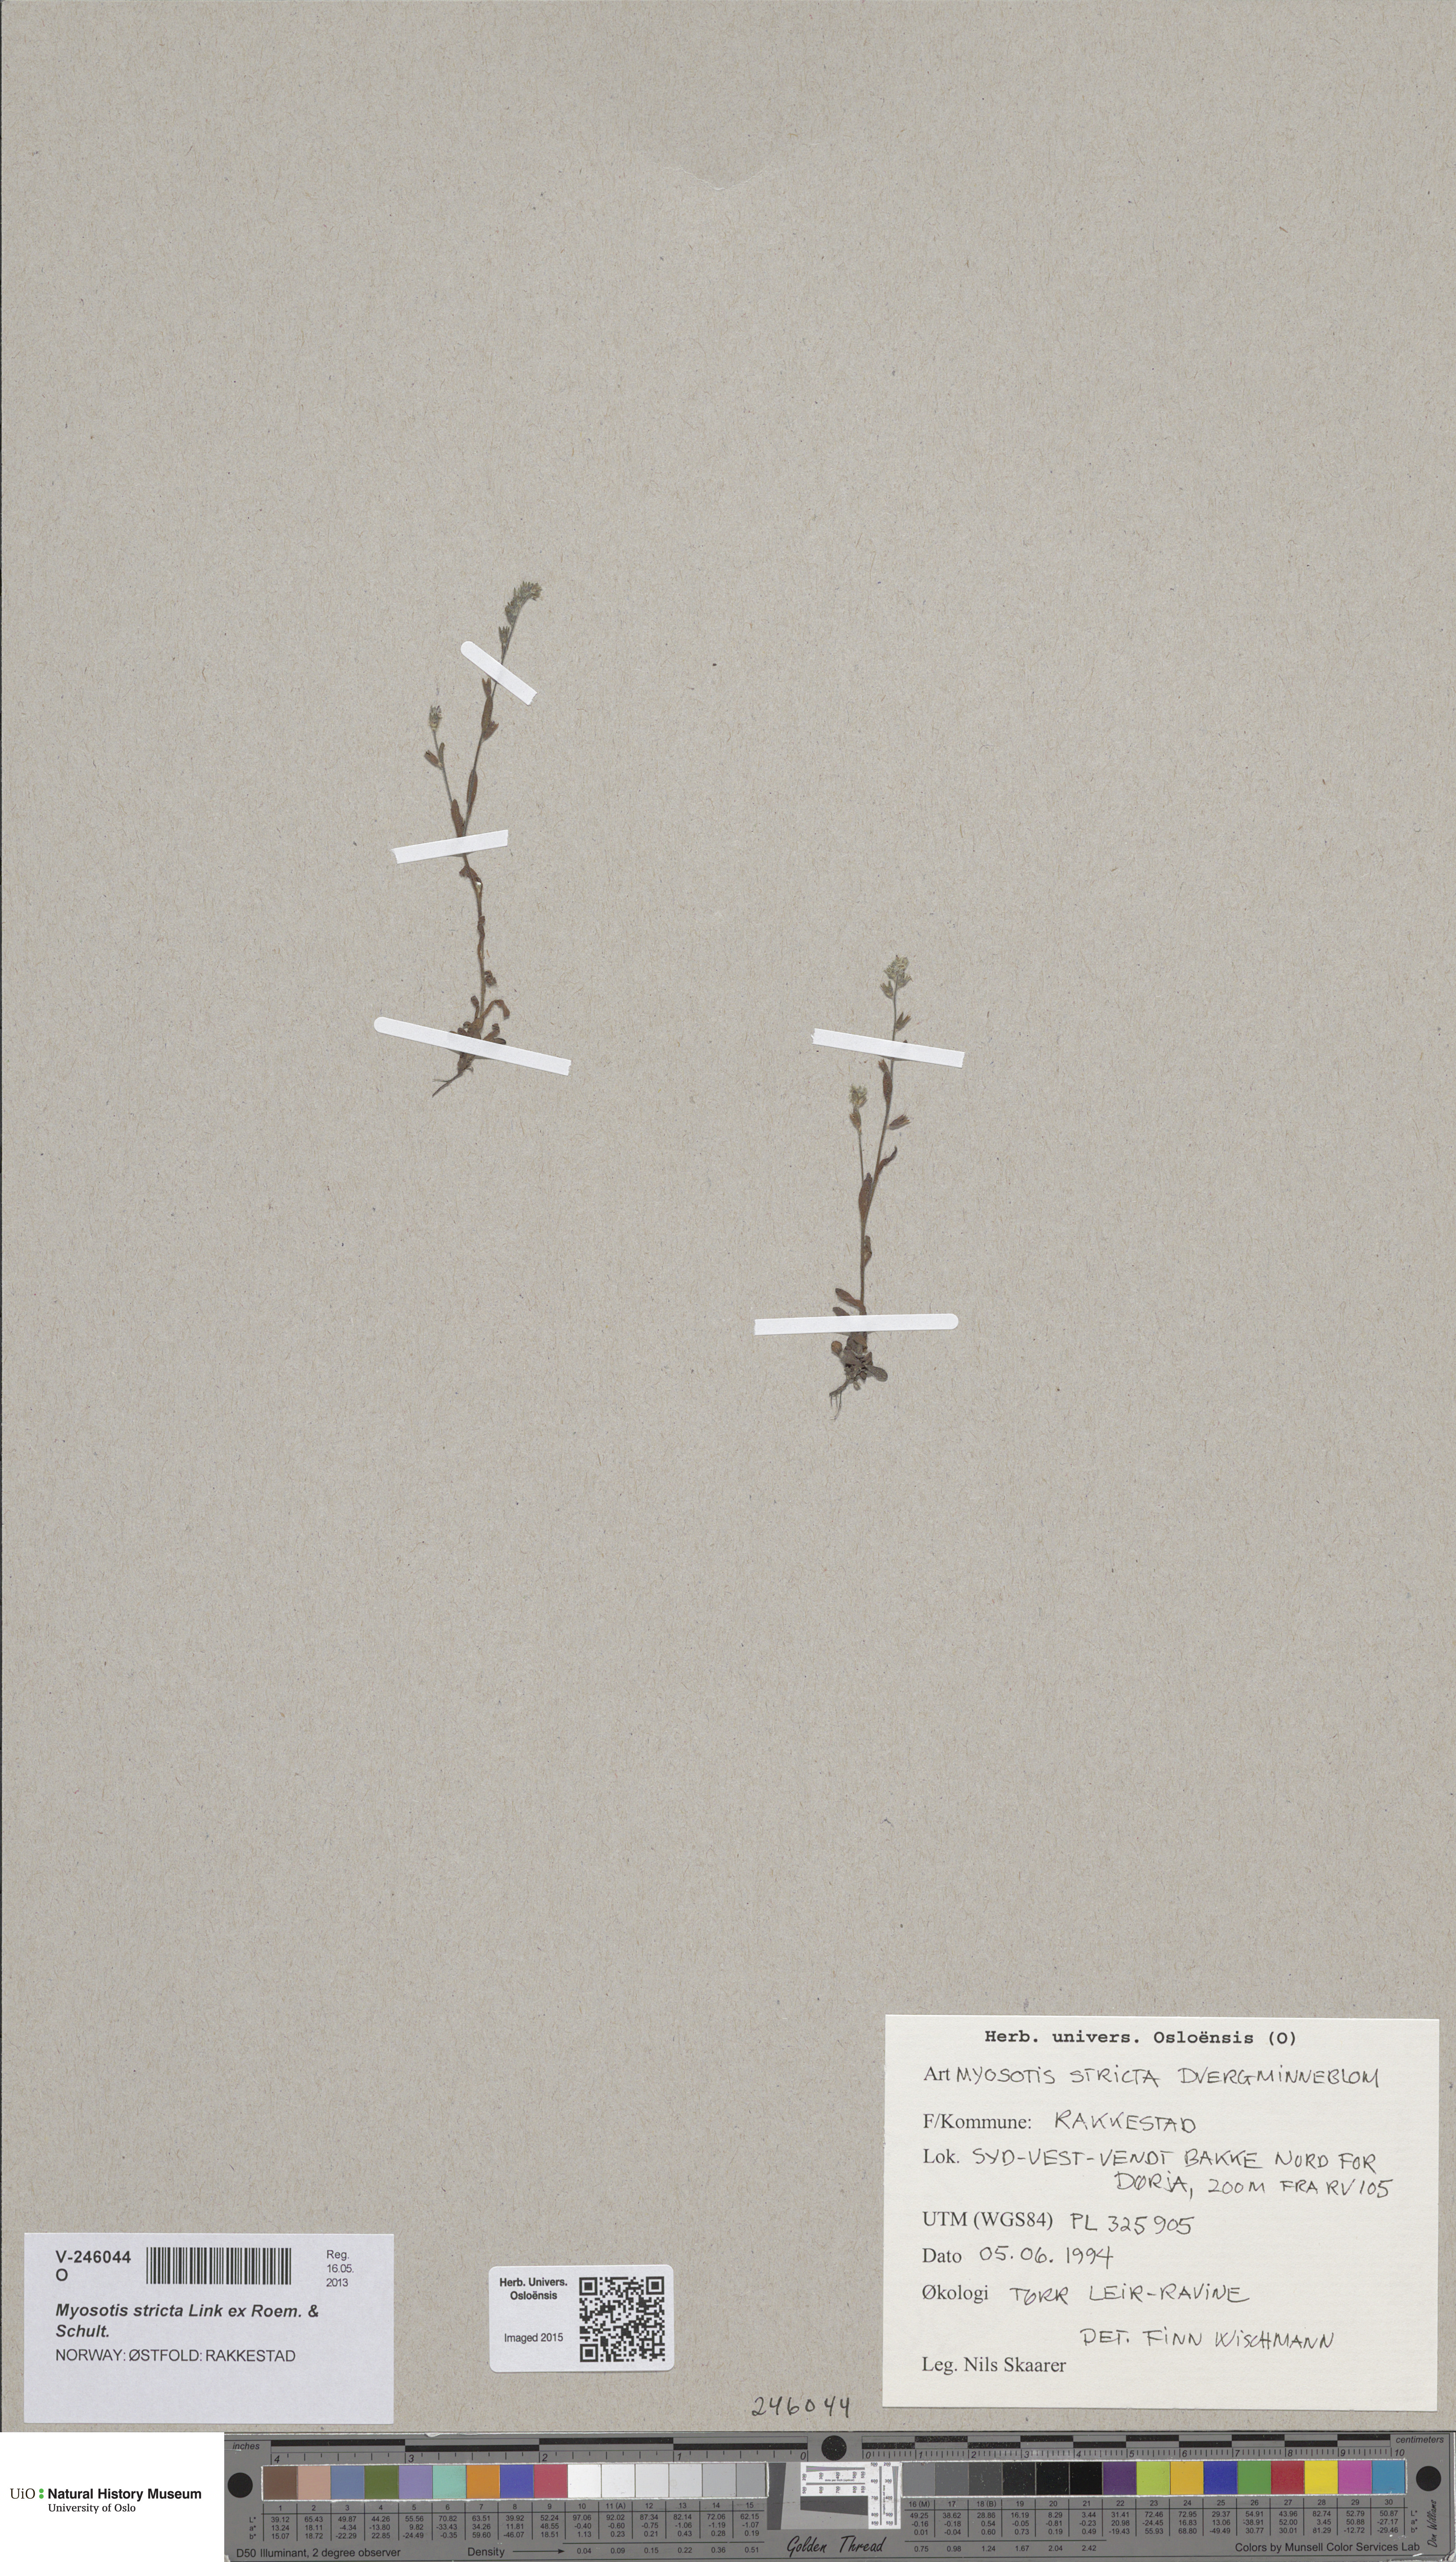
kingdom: Plantae
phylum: Tracheophyta
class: Magnoliopsida
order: Boraginales
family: Boraginaceae
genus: Myosotis
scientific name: Myosotis stricta
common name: Strict forget-me-not
